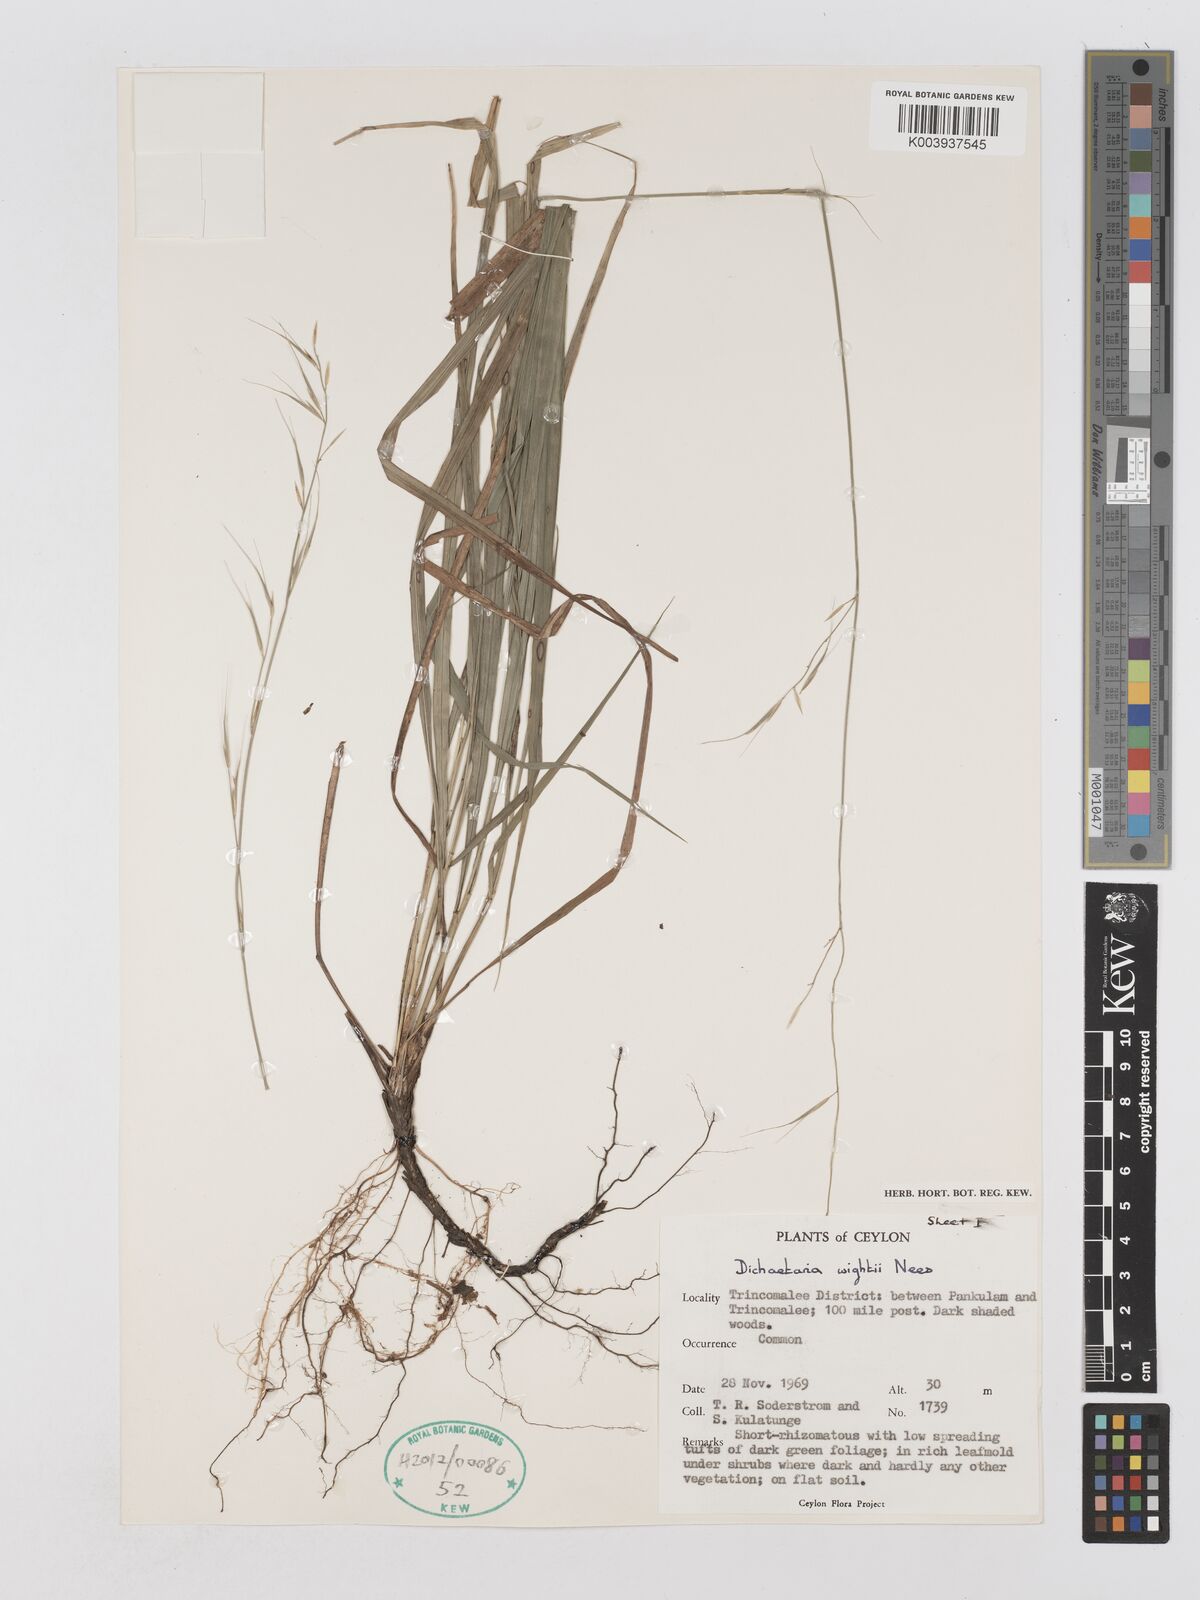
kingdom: Plantae
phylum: Tracheophyta
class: Liliopsida
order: Poales
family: Poaceae
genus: Dichaetaria
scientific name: Dichaetaria wightii
